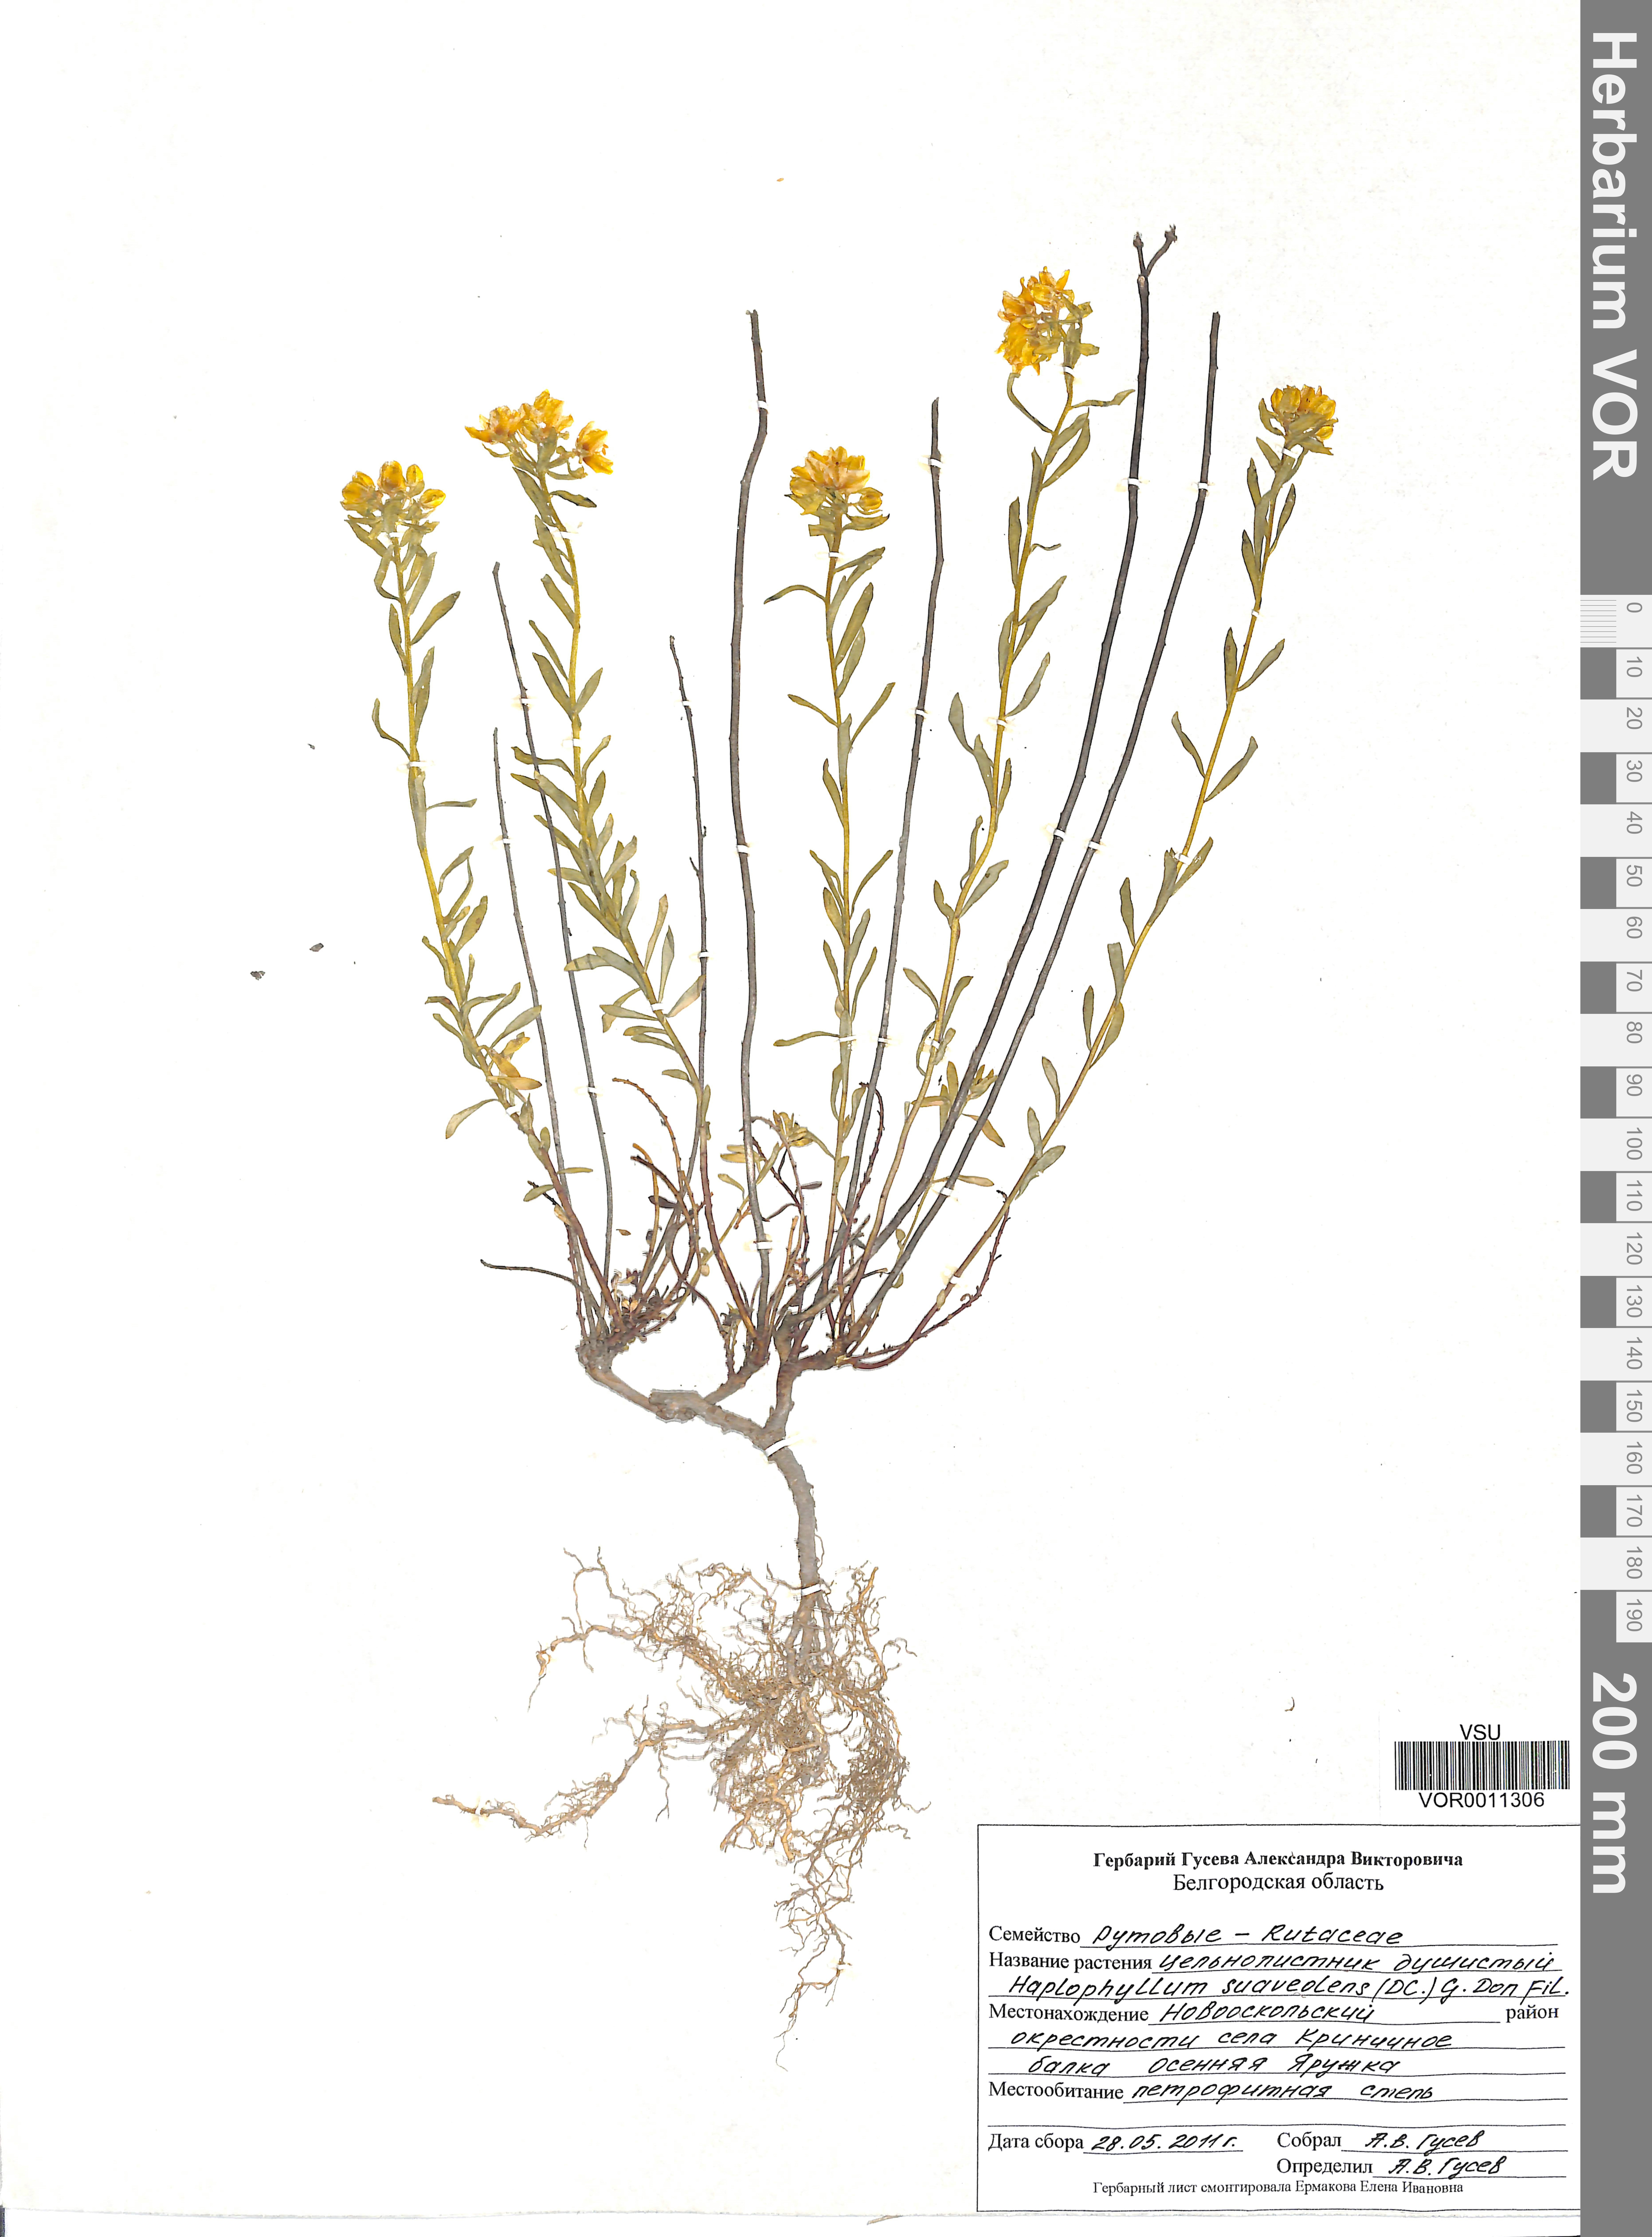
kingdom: Plantae
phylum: Tracheophyta
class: Magnoliopsida
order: Sapindales
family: Rutaceae
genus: Haplophyllum
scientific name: Haplophyllum suaveolens
